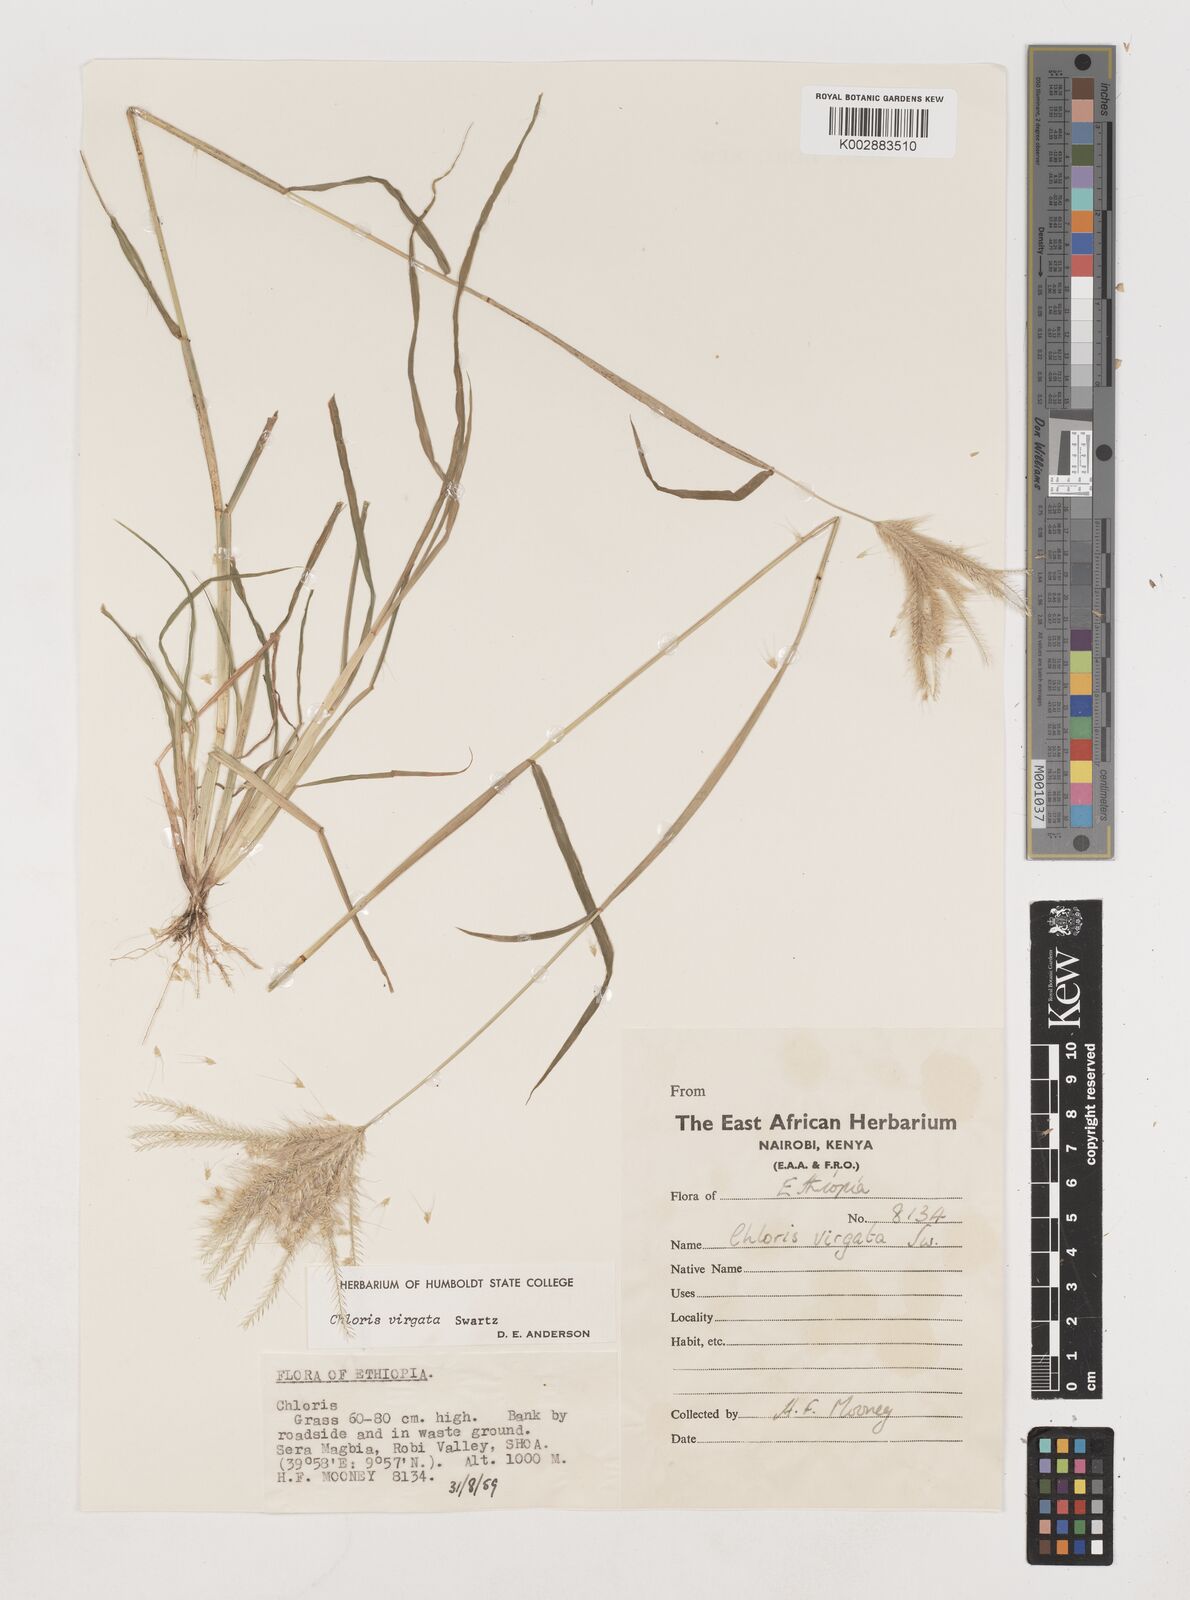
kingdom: Plantae
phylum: Tracheophyta
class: Liliopsida
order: Poales
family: Poaceae
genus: Chloris
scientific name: Chloris virgata
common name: Feathery rhodes-grass
